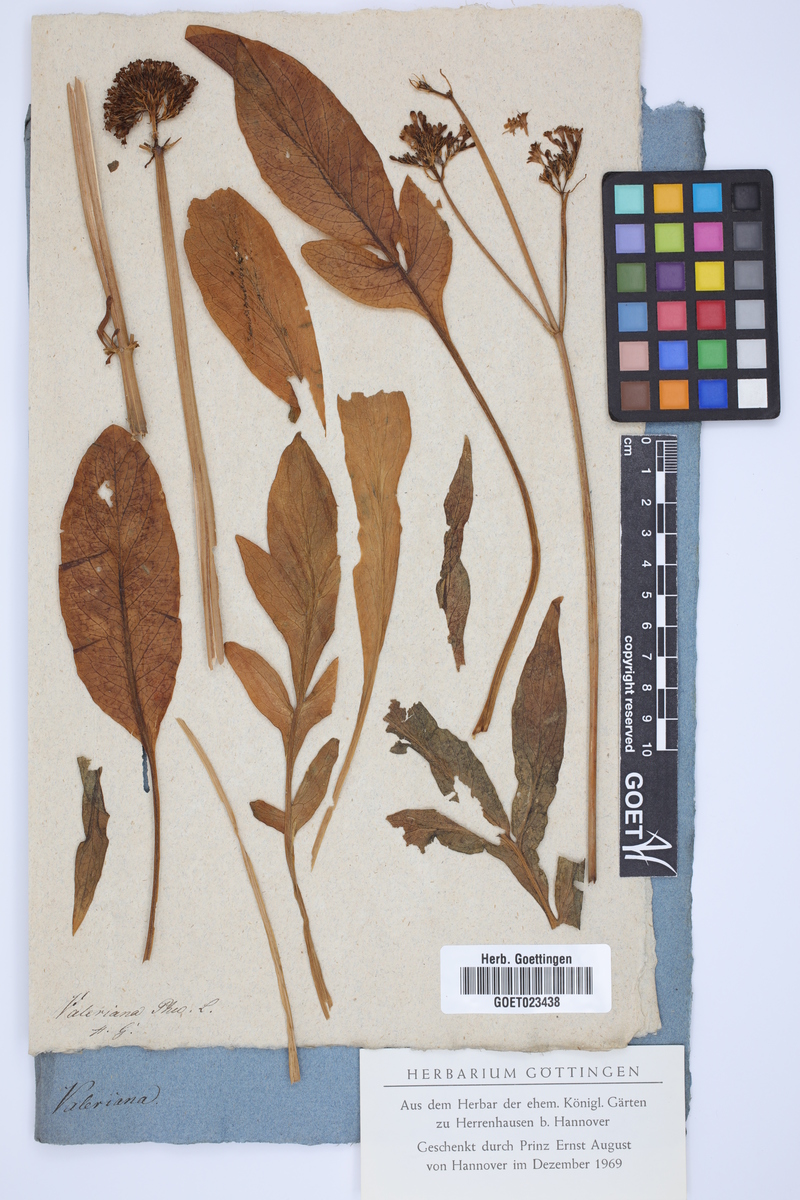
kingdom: Plantae
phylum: Tracheophyta
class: Magnoliopsida
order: Dipsacales
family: Caprifoliaceae
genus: Valeriana
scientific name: Valeriana phu
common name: Turkey valerian
